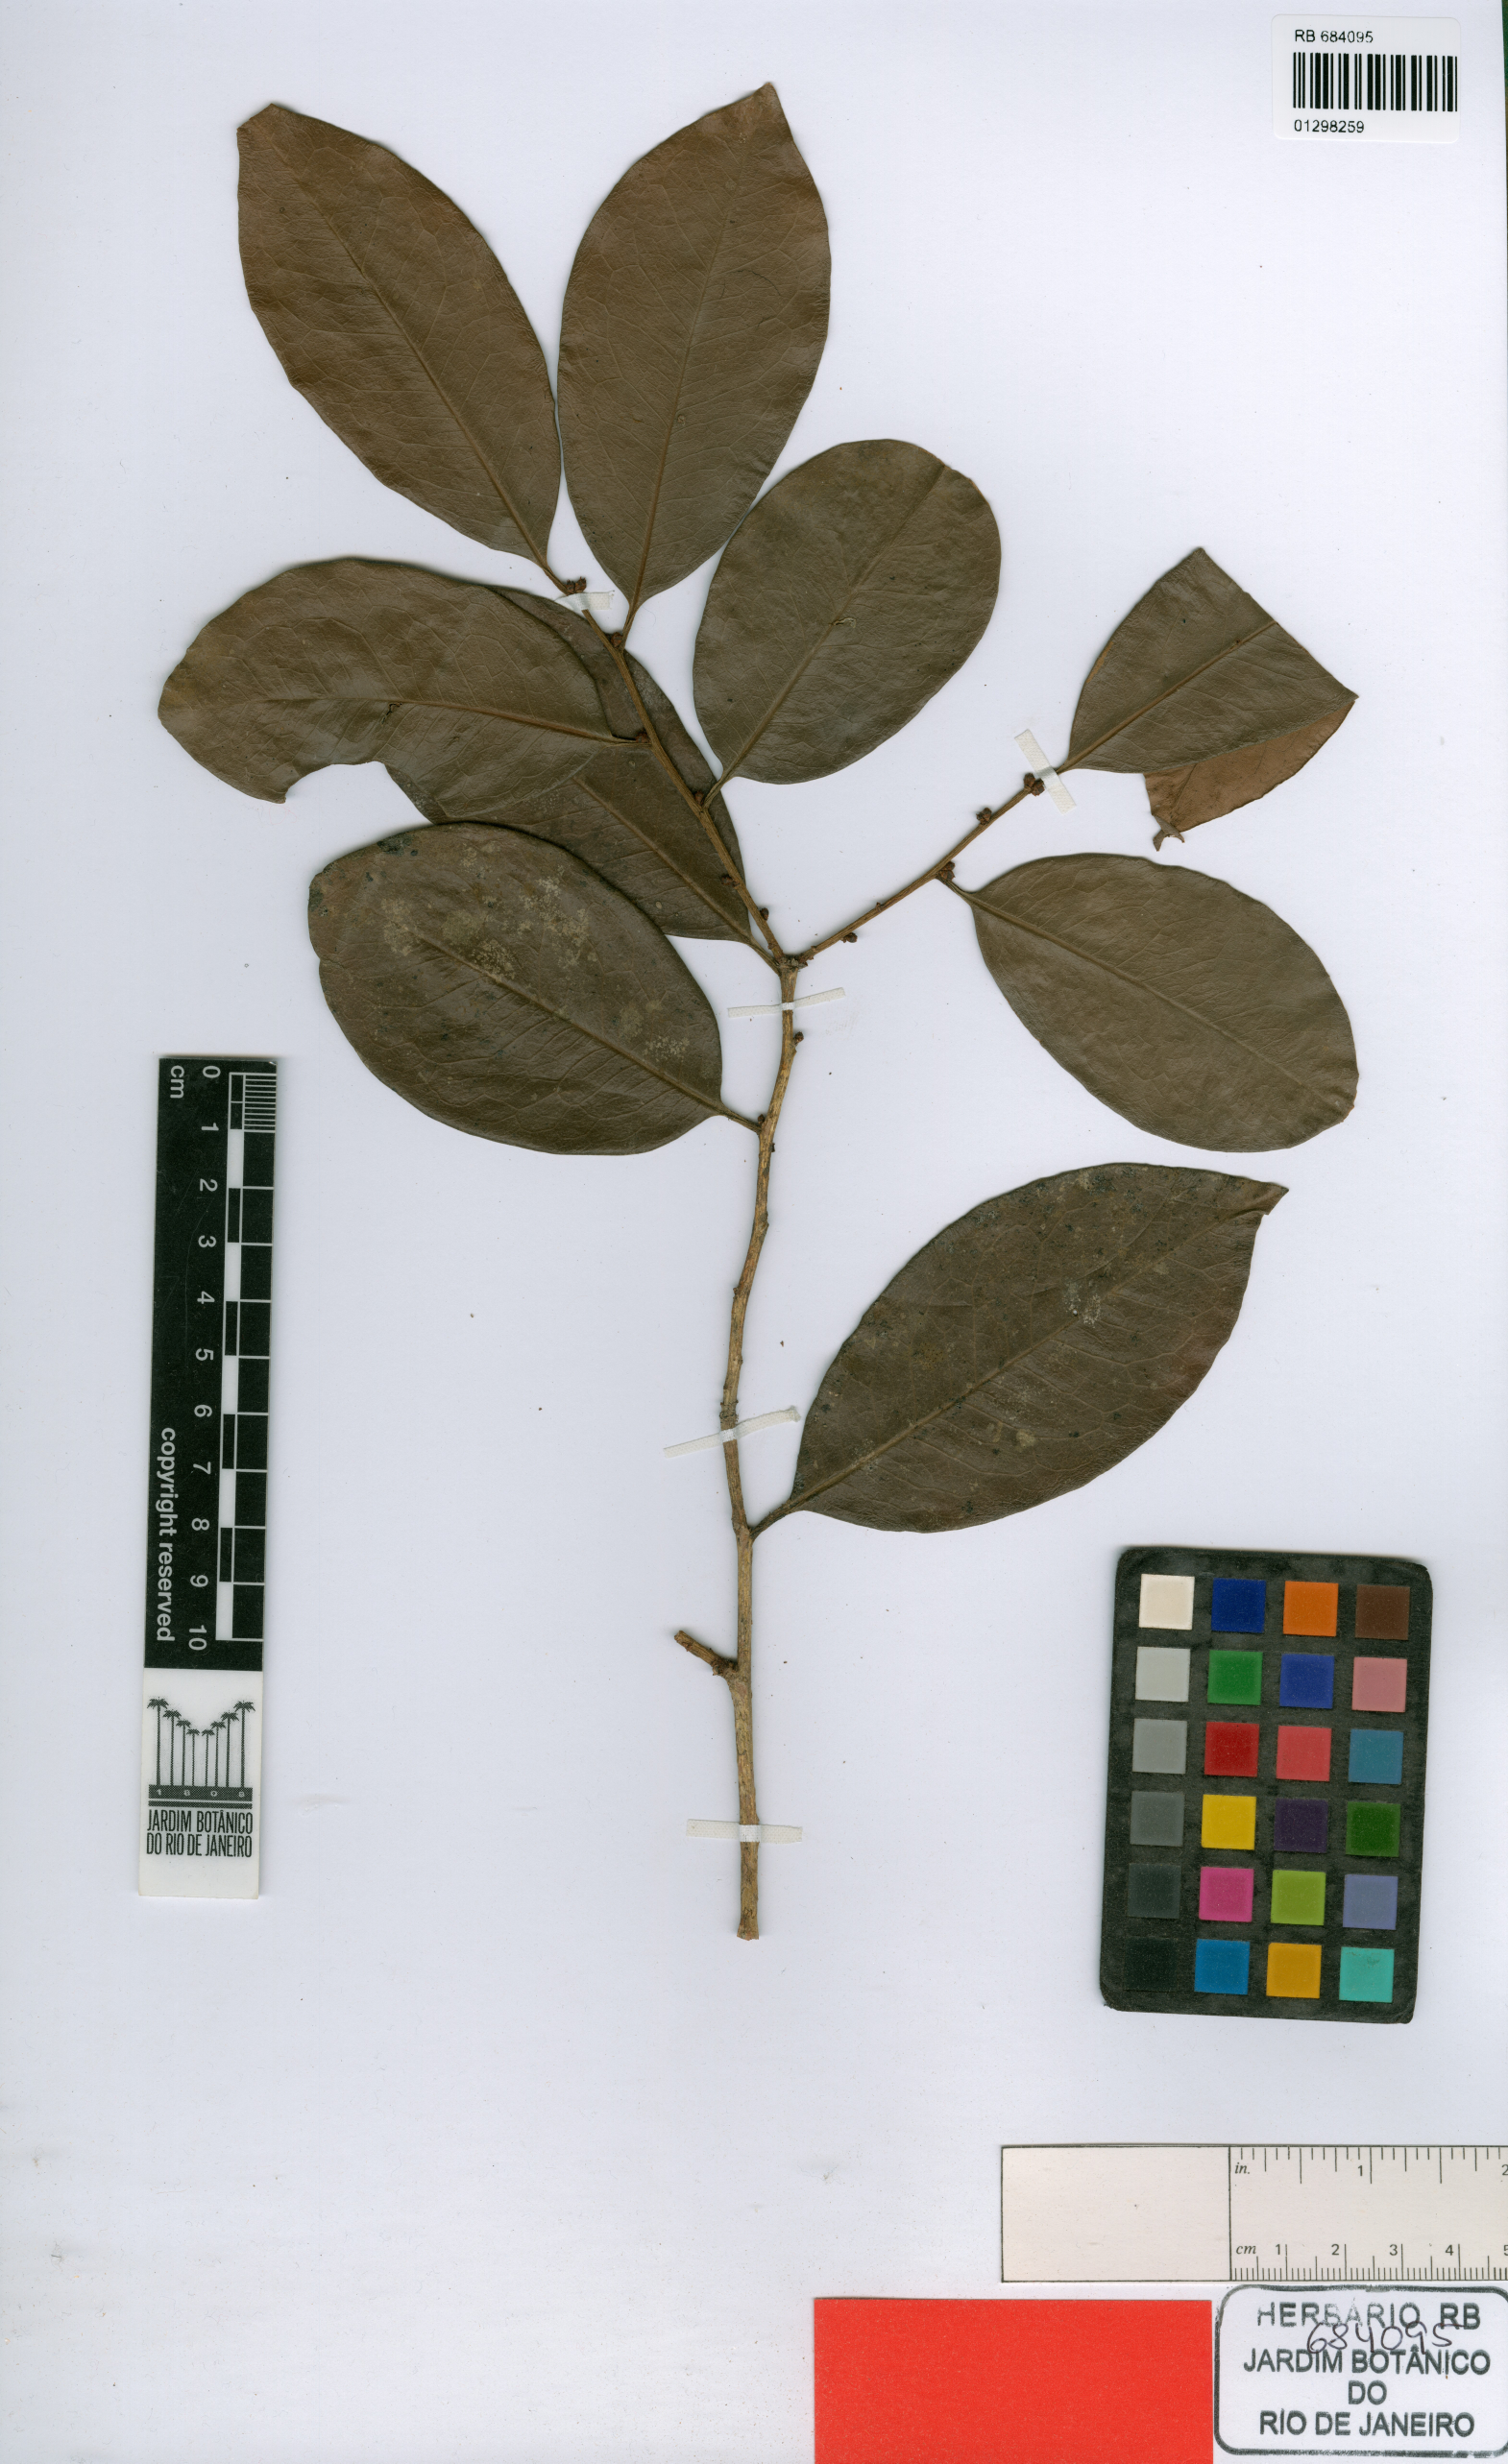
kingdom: Plantae
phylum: Tracheophyta
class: Magnoliopsida
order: Canellales
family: Canellaceae
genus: Cinnamodendron
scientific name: Cinnamodendron occhionianum
